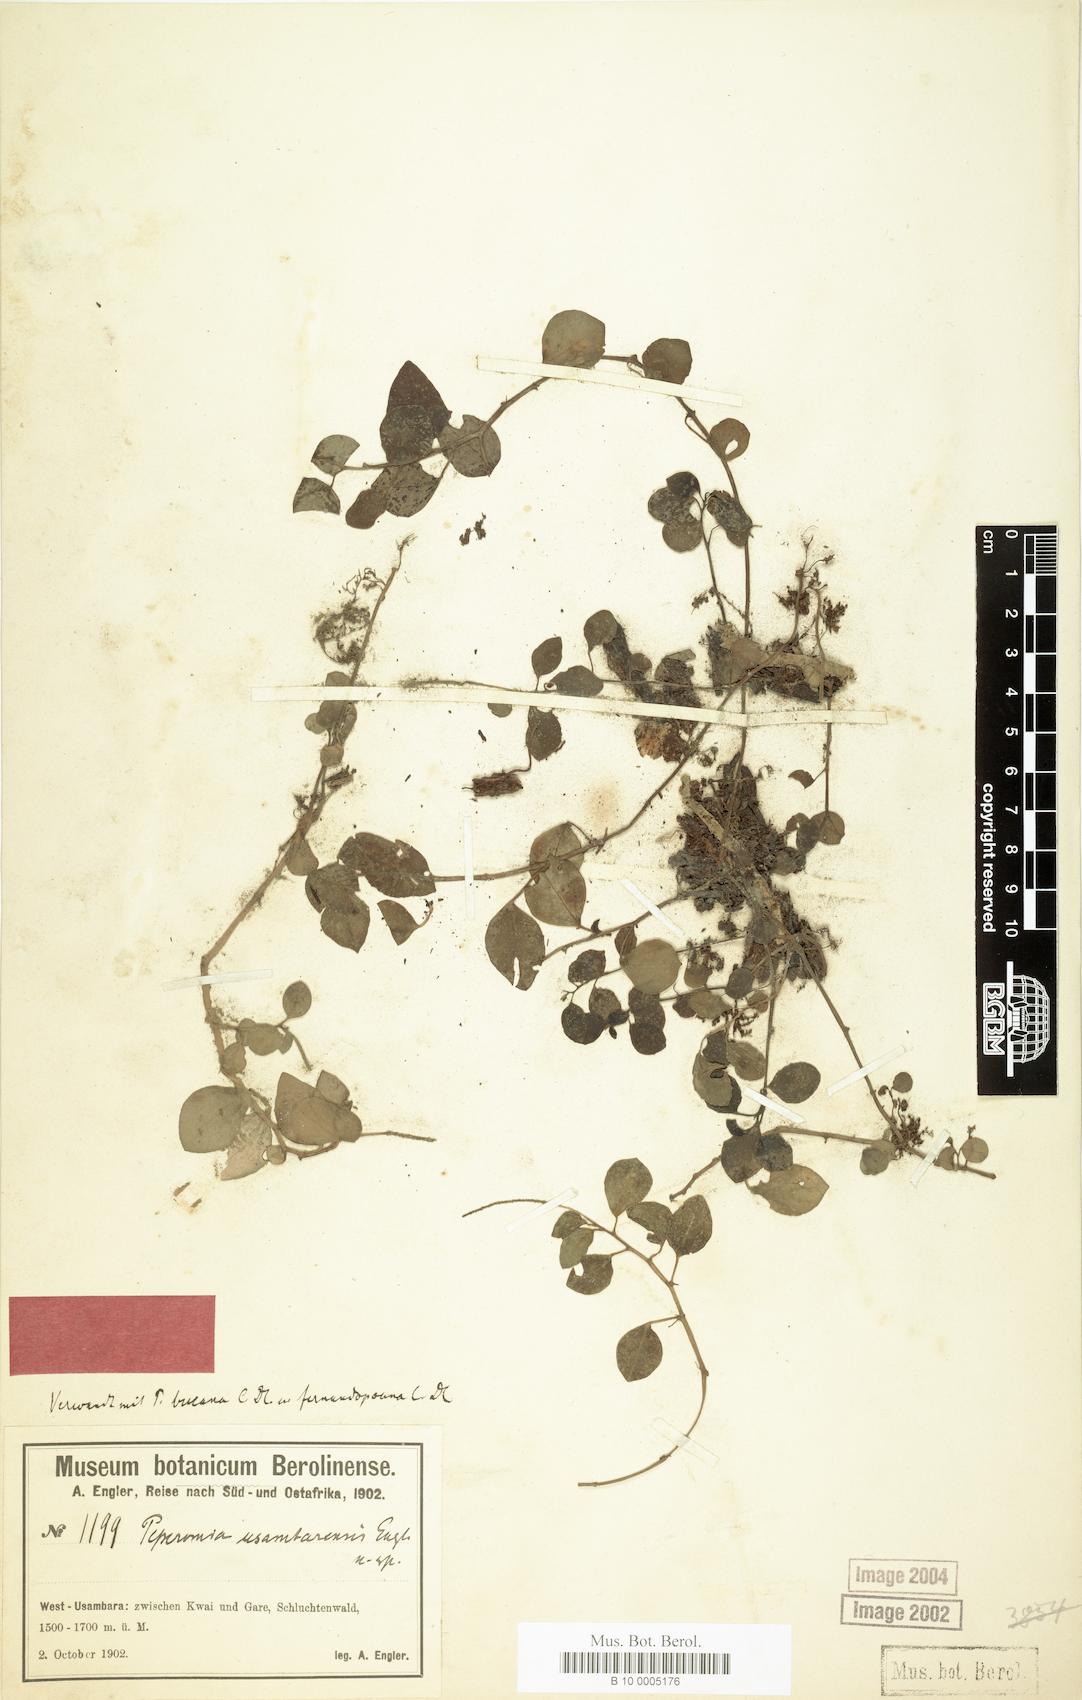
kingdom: Plantae
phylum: Tracheophyta
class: Magnoliopsida
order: Piperales
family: Piperaceae
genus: Peperomia
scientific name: Peperomia retusa
